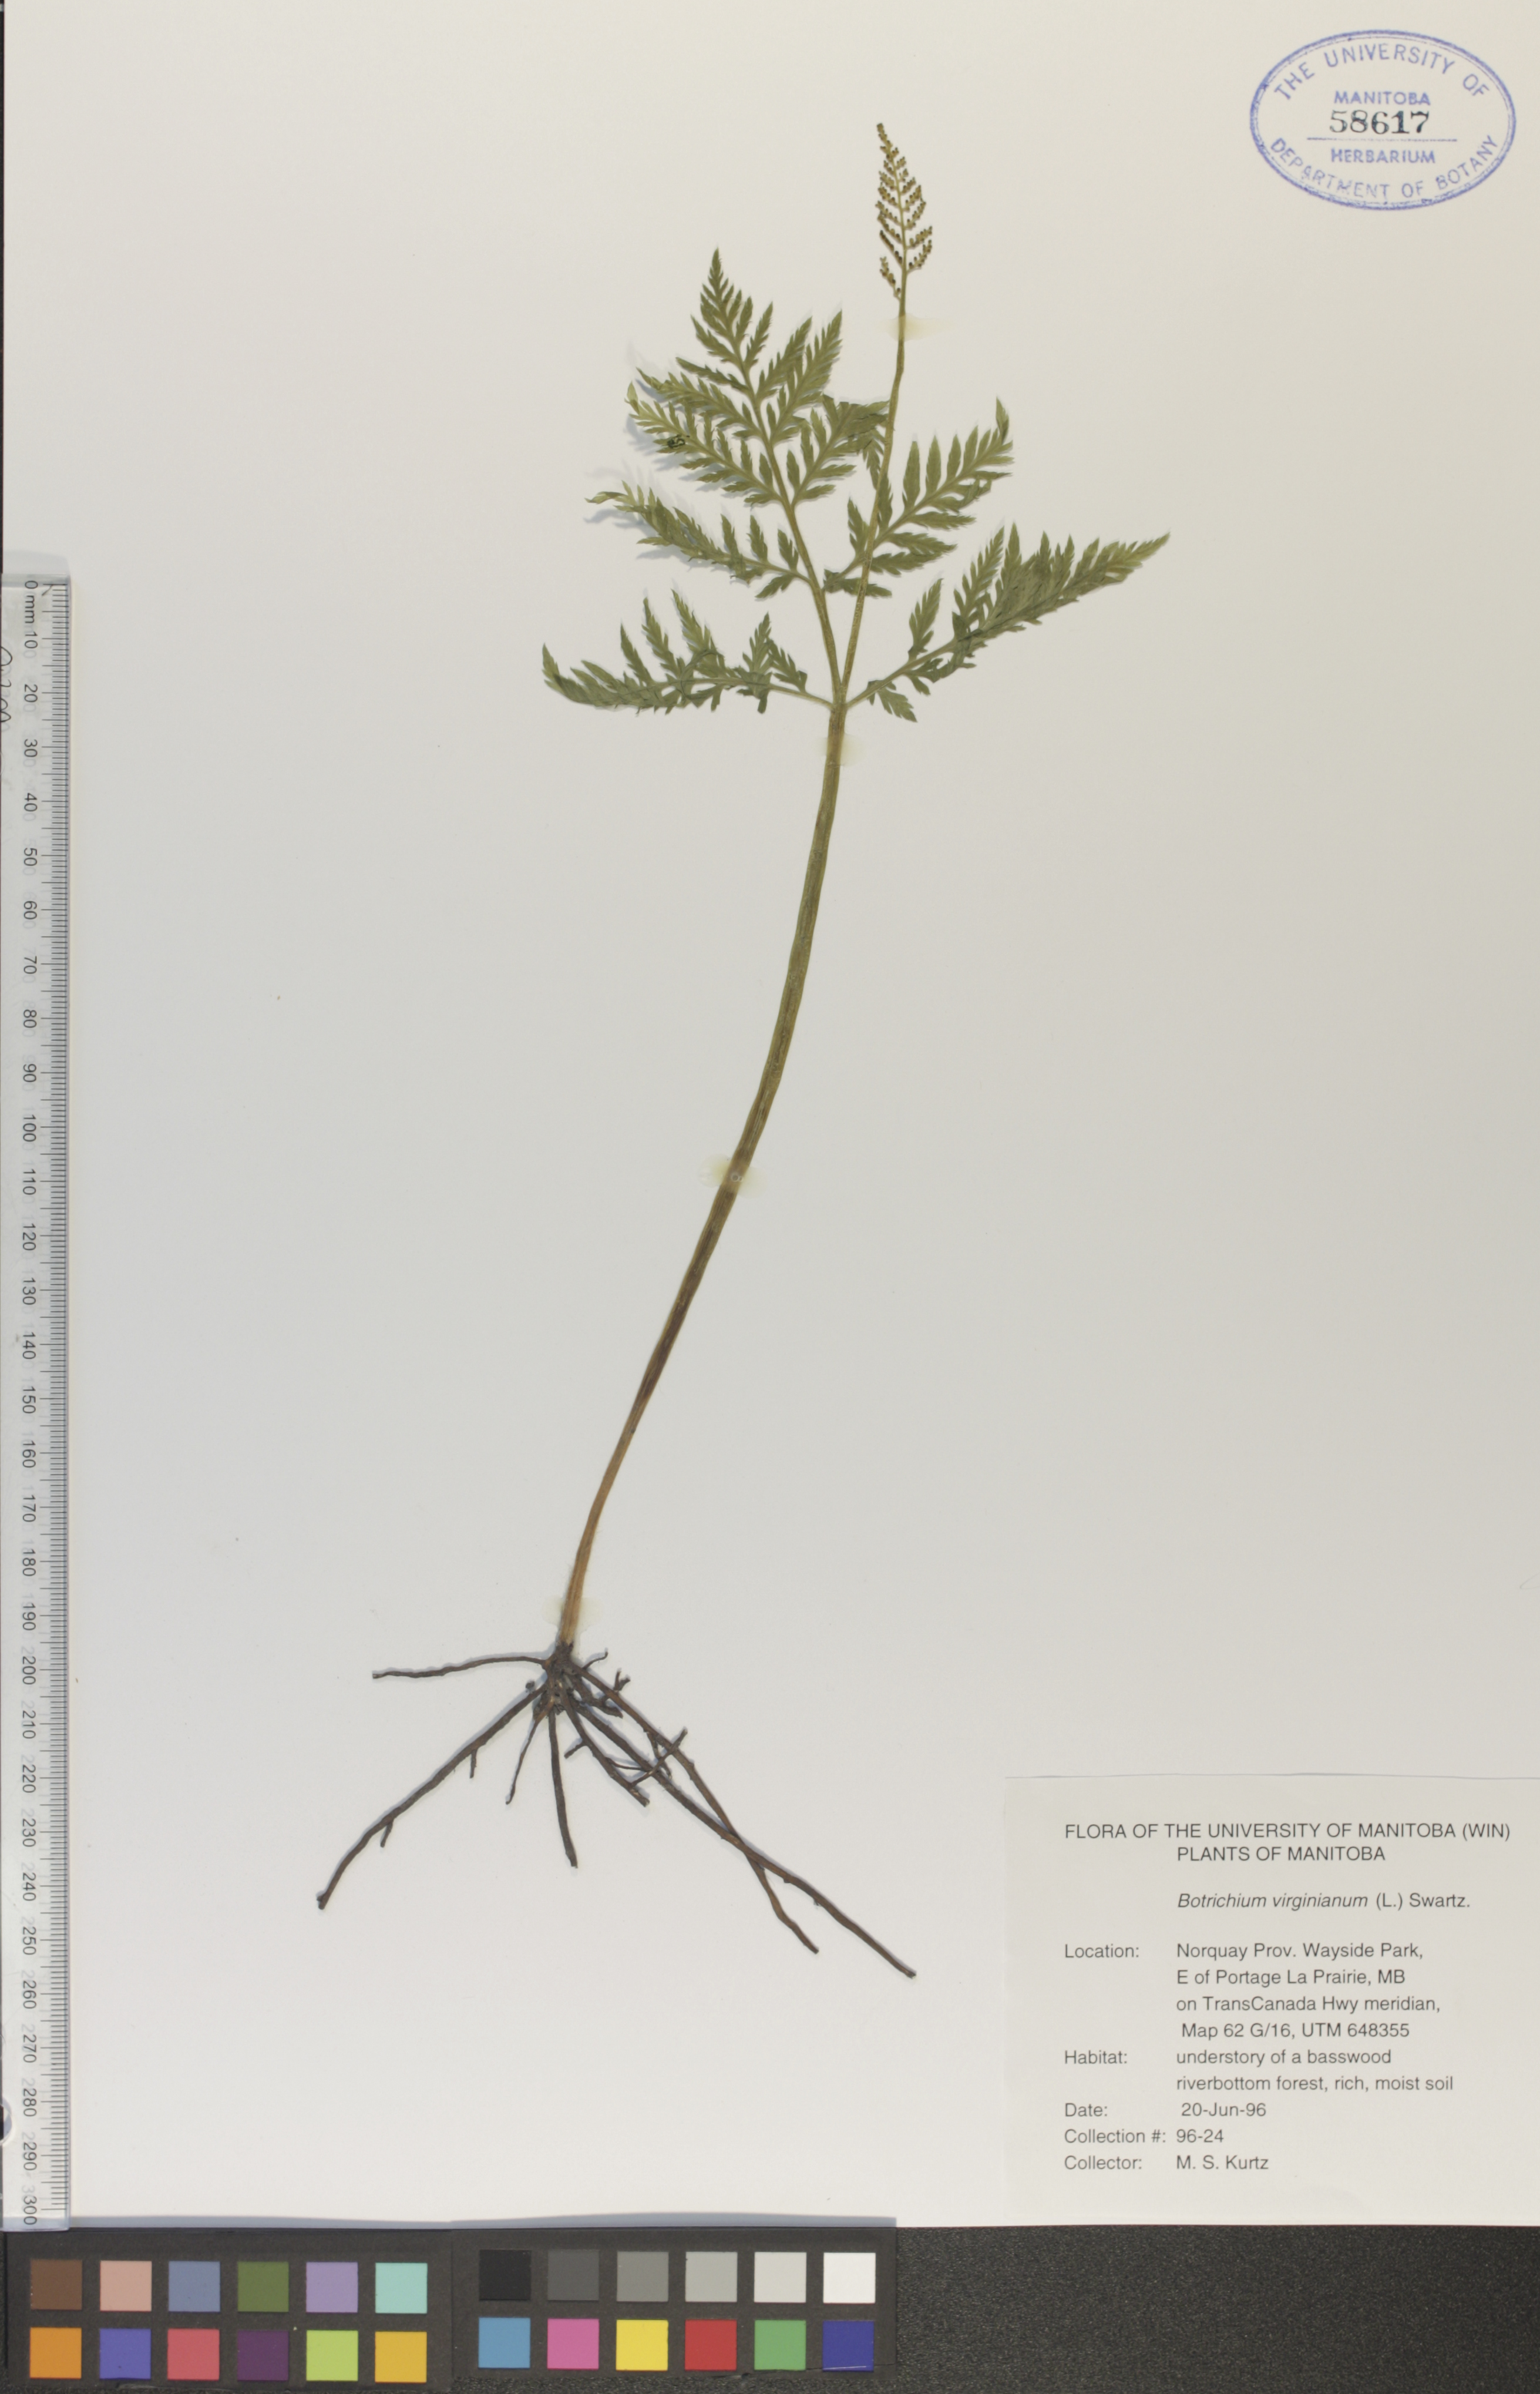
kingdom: Plantae
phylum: Tracheophyta
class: Polypodiopsida
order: Ophioglossales
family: Ophioglossaceae
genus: Botrypus
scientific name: Botrypus virginianus
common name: Common grapefern
